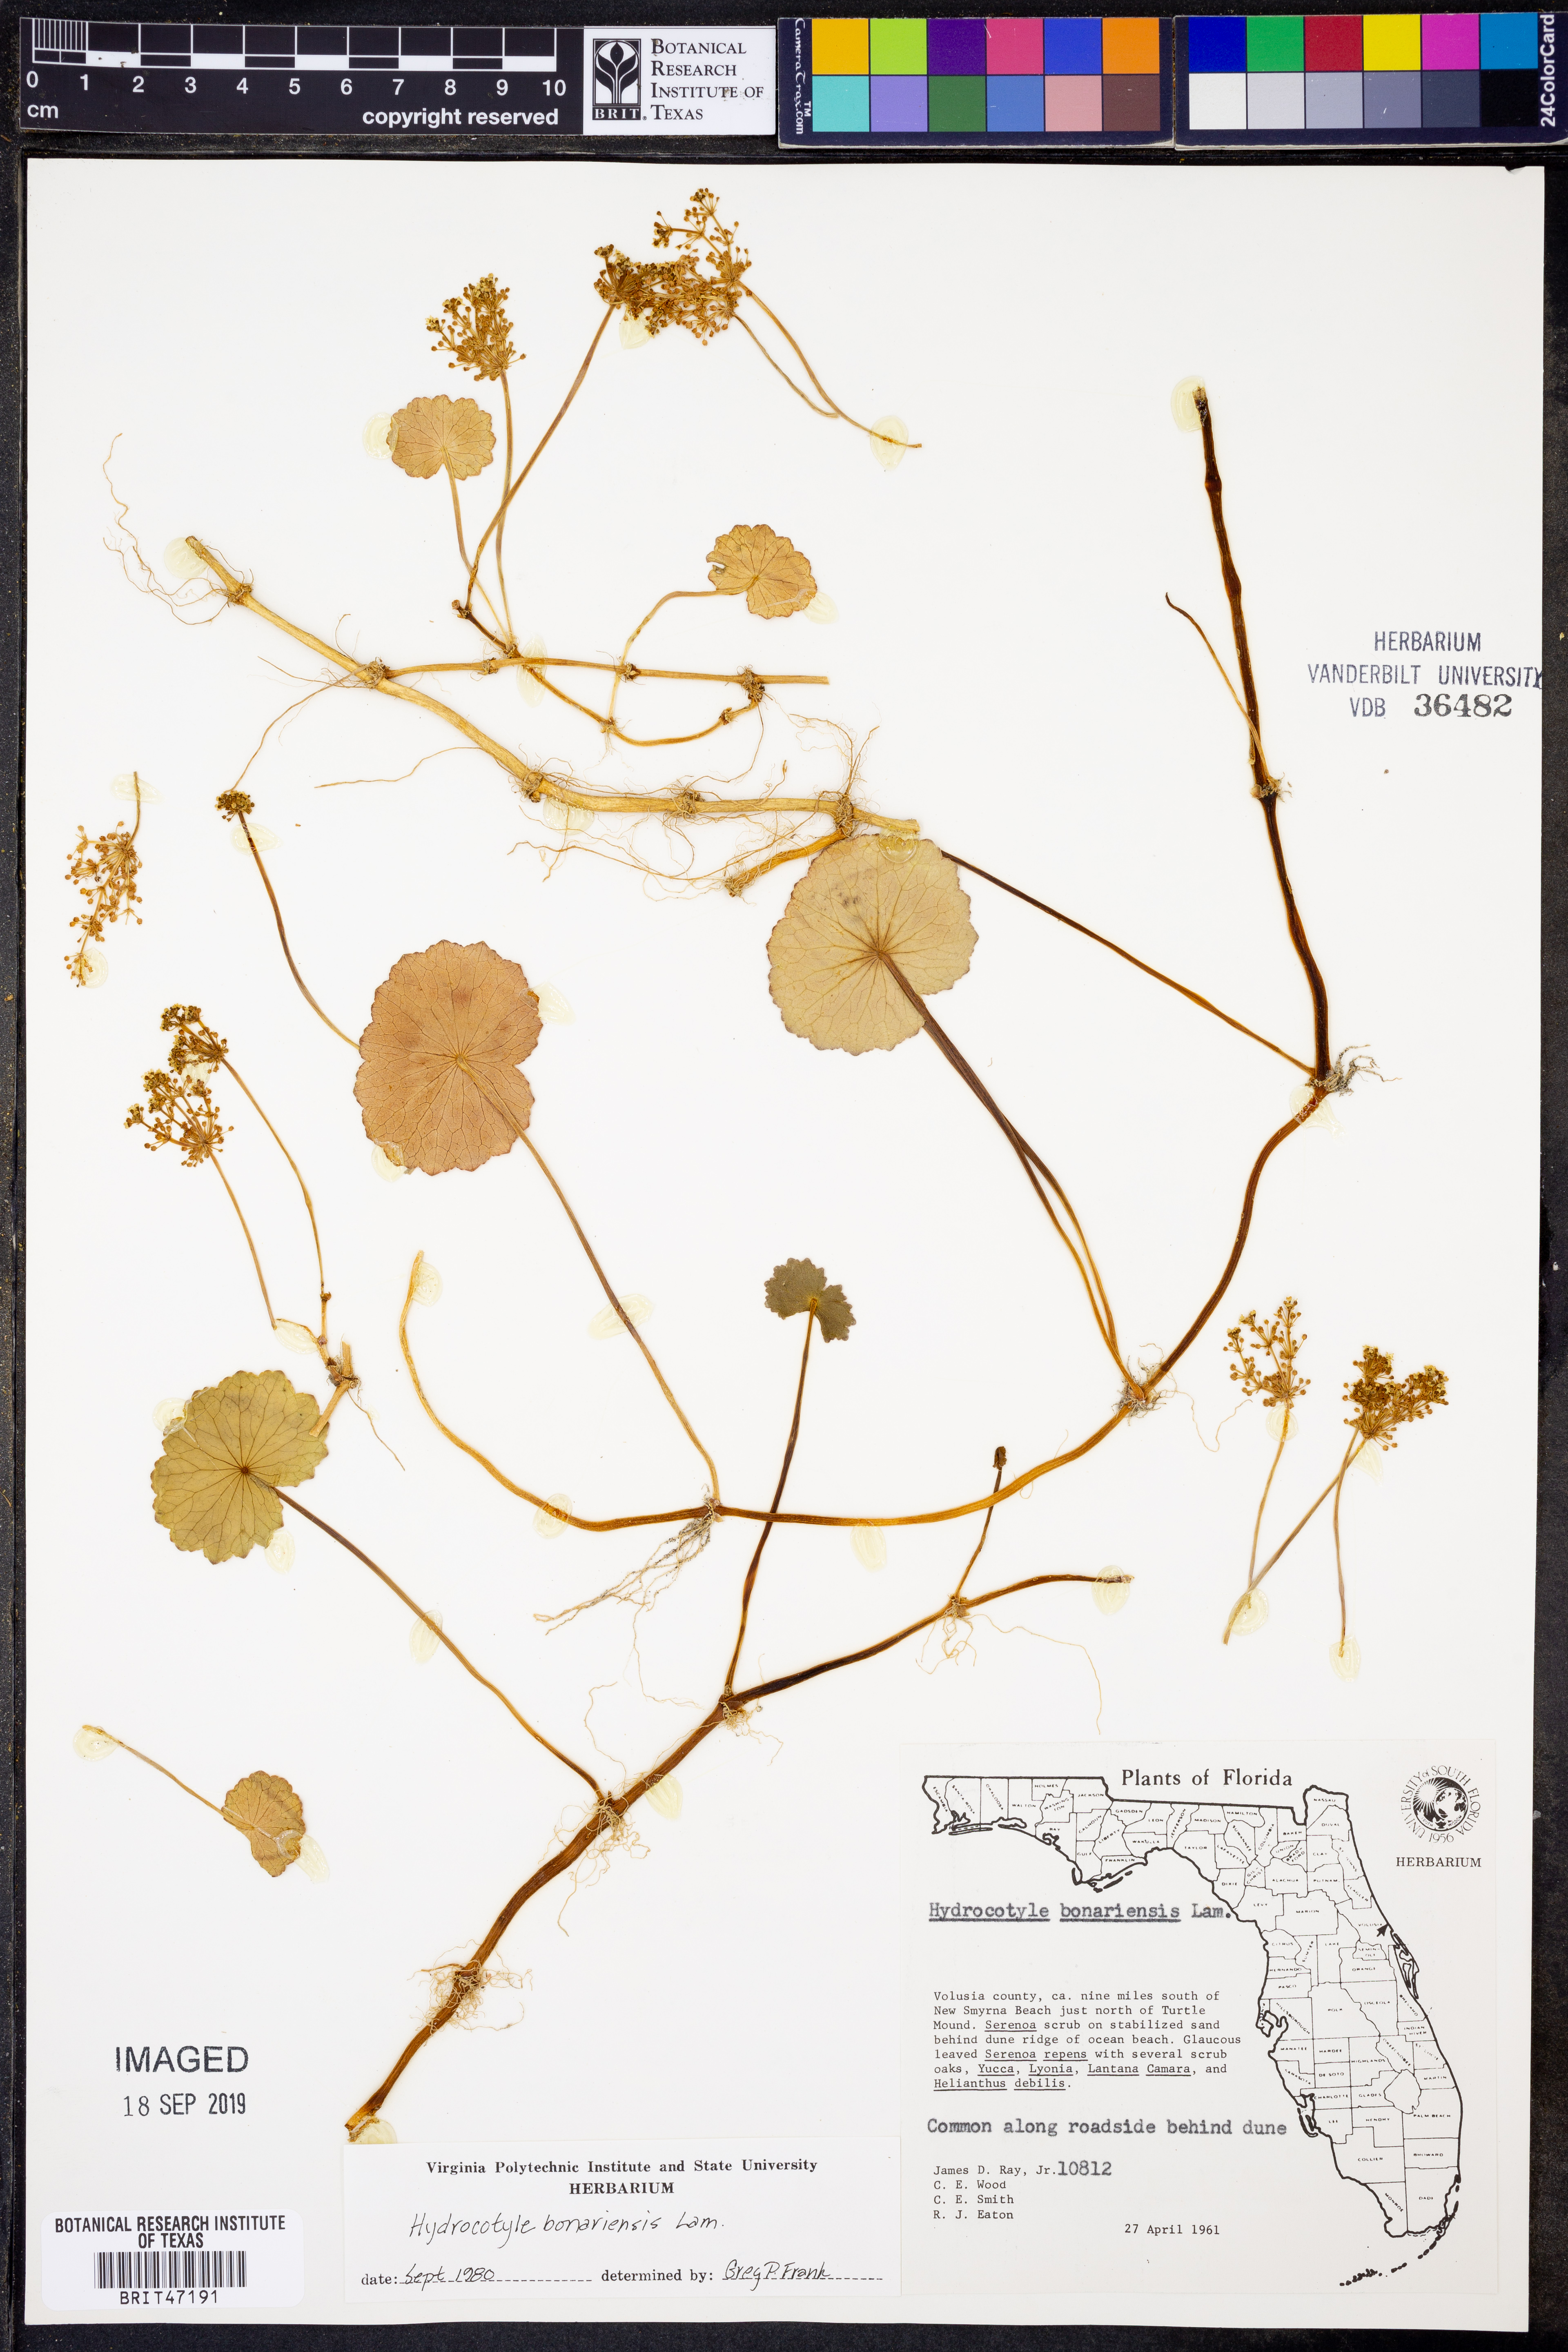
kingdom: Plantae
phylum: Tracheophyta
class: Magnoliopsida
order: Apiales
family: Araliaceae
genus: Hydrocotyle
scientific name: Hydrocotyle bonariensis
